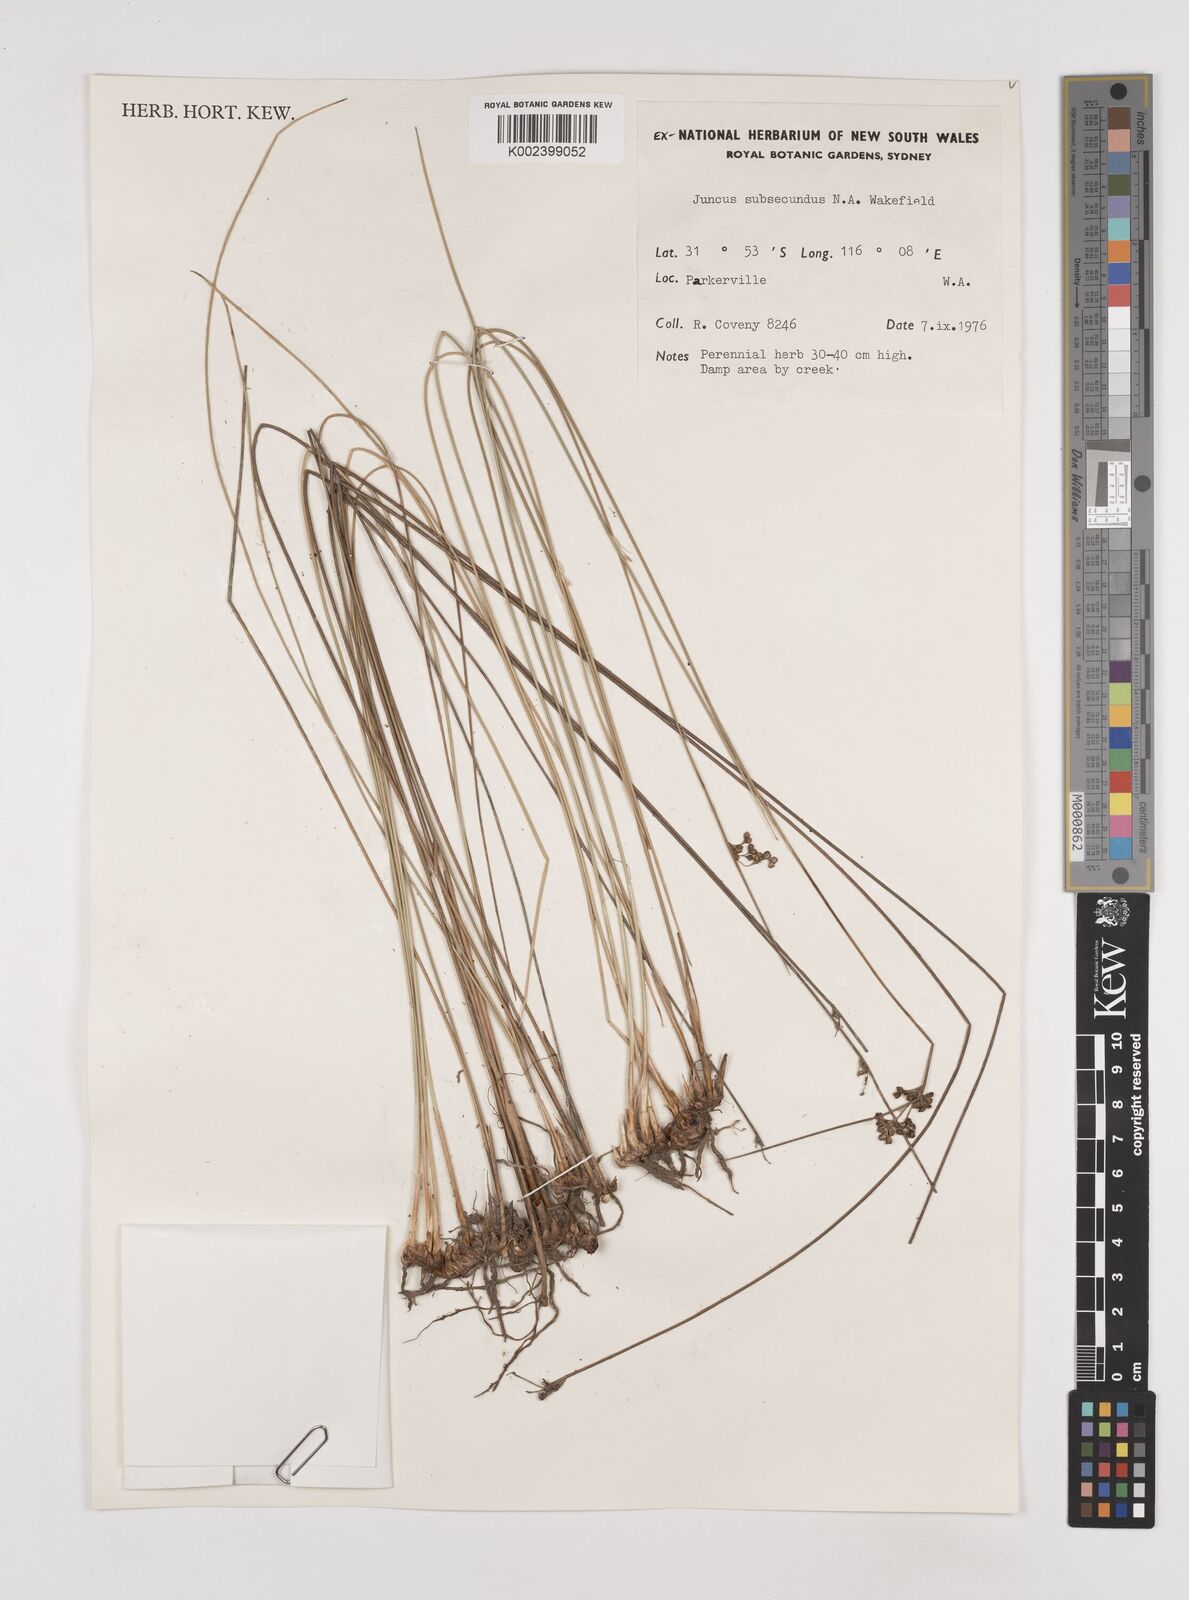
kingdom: Plantae
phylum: Tracheophyta
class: Liliopsida
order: Poales
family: Juncaceae
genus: Juncus
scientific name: Juncus subsecundus
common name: Fingered rush
